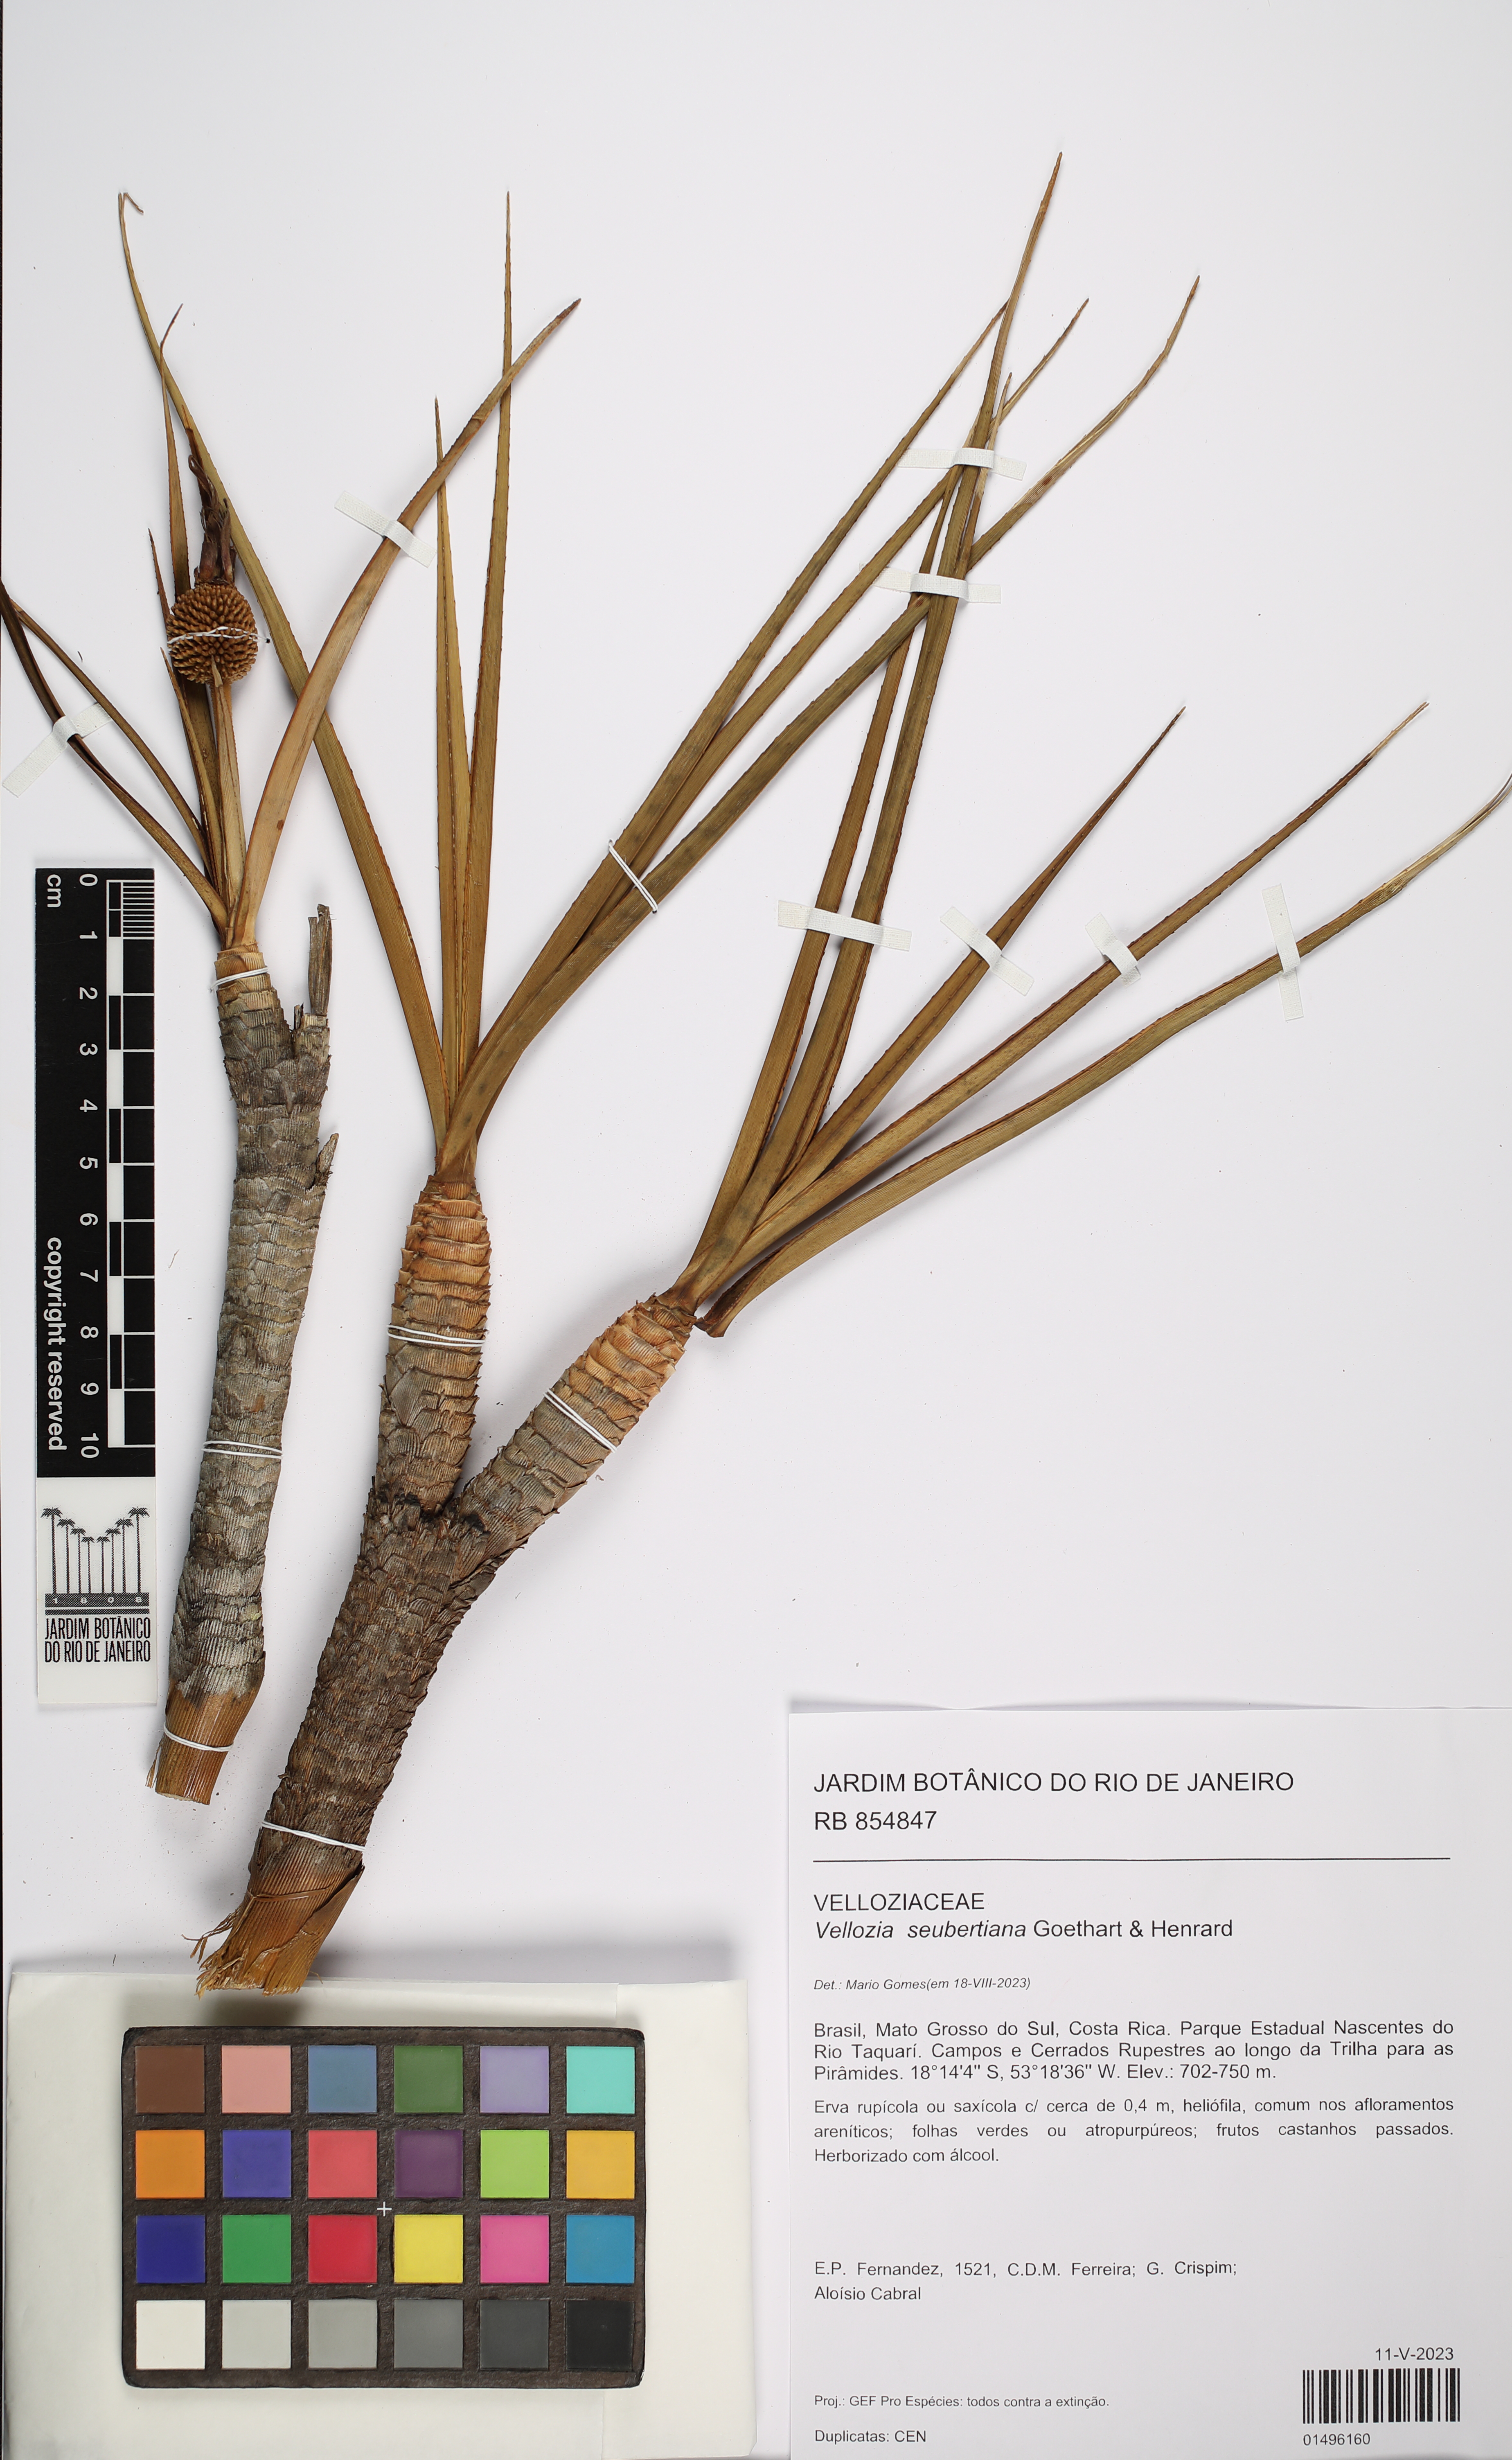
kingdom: Plantae
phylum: Tracheophyta
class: Liliopsida
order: Pandanales
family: Velloziaceae
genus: Vellozia
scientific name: Vellozia seubertiana
